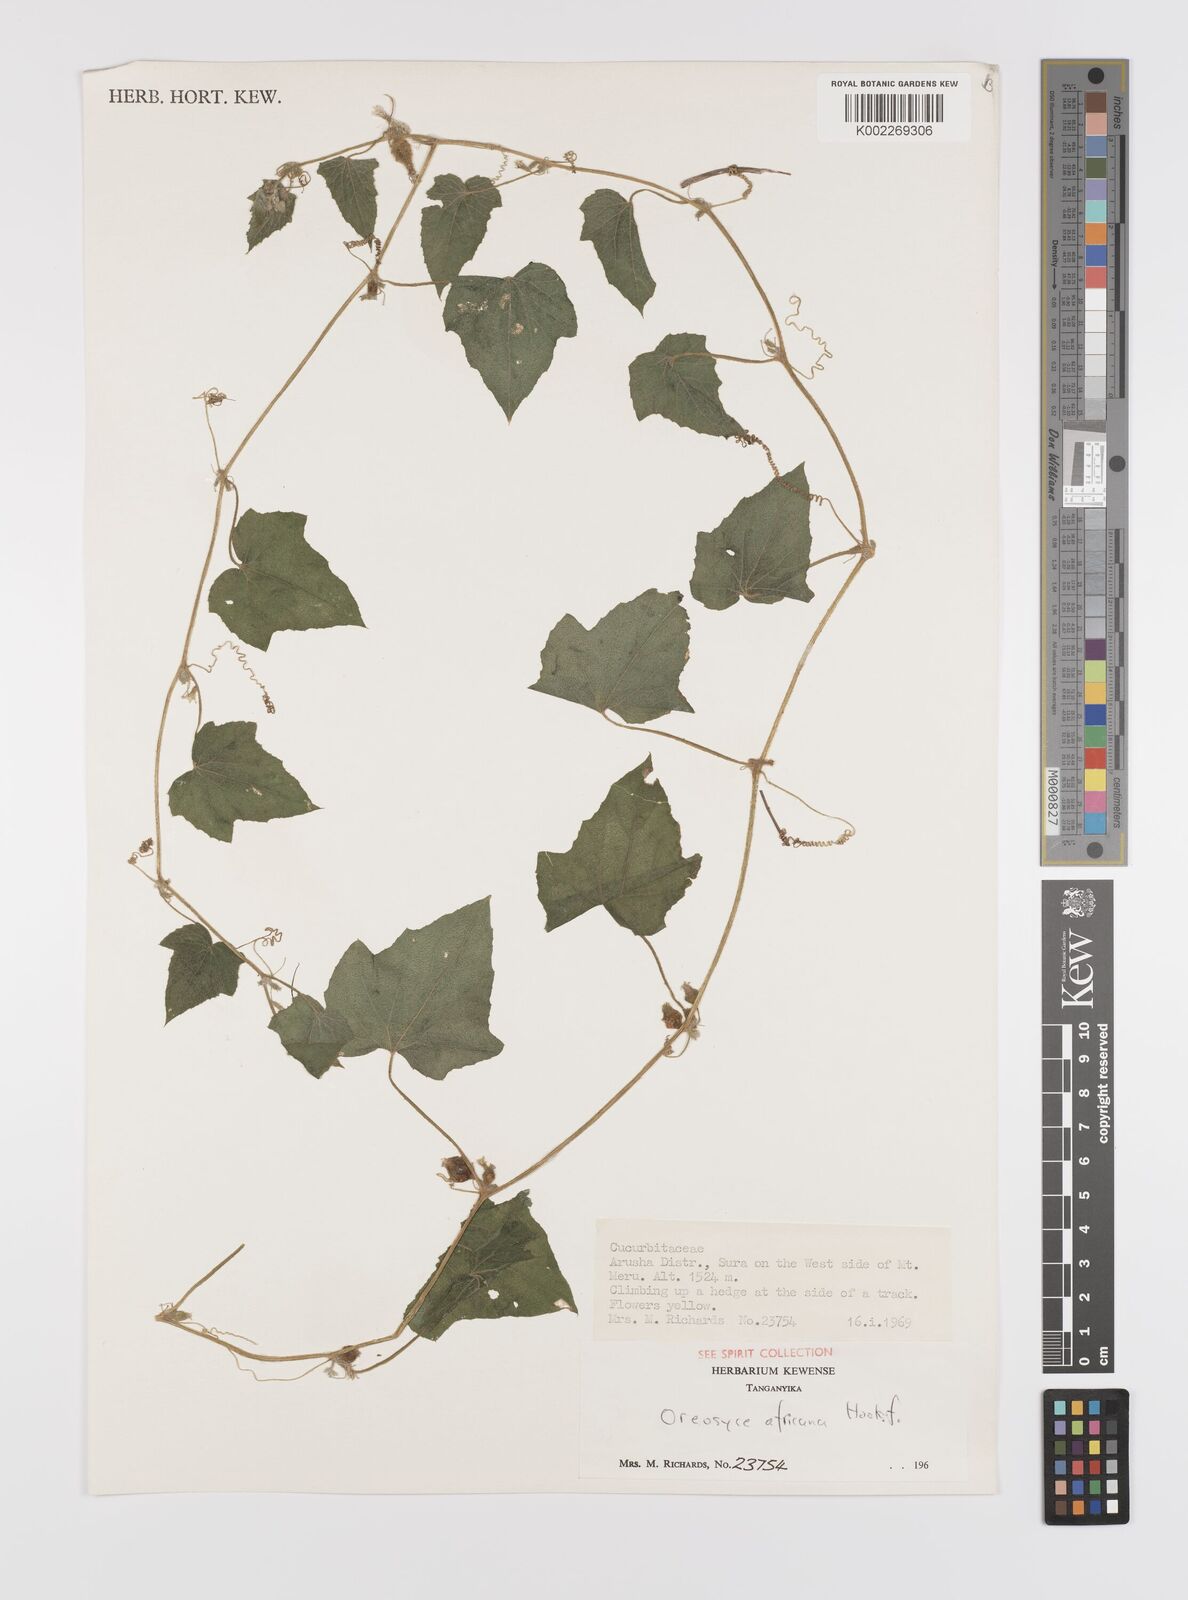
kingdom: Plantae
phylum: Tracheophyta
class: Magnoliopsida
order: Cucurbitales
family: Cucurbitaceae
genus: Cucumis
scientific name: Cucumis oreosyce
